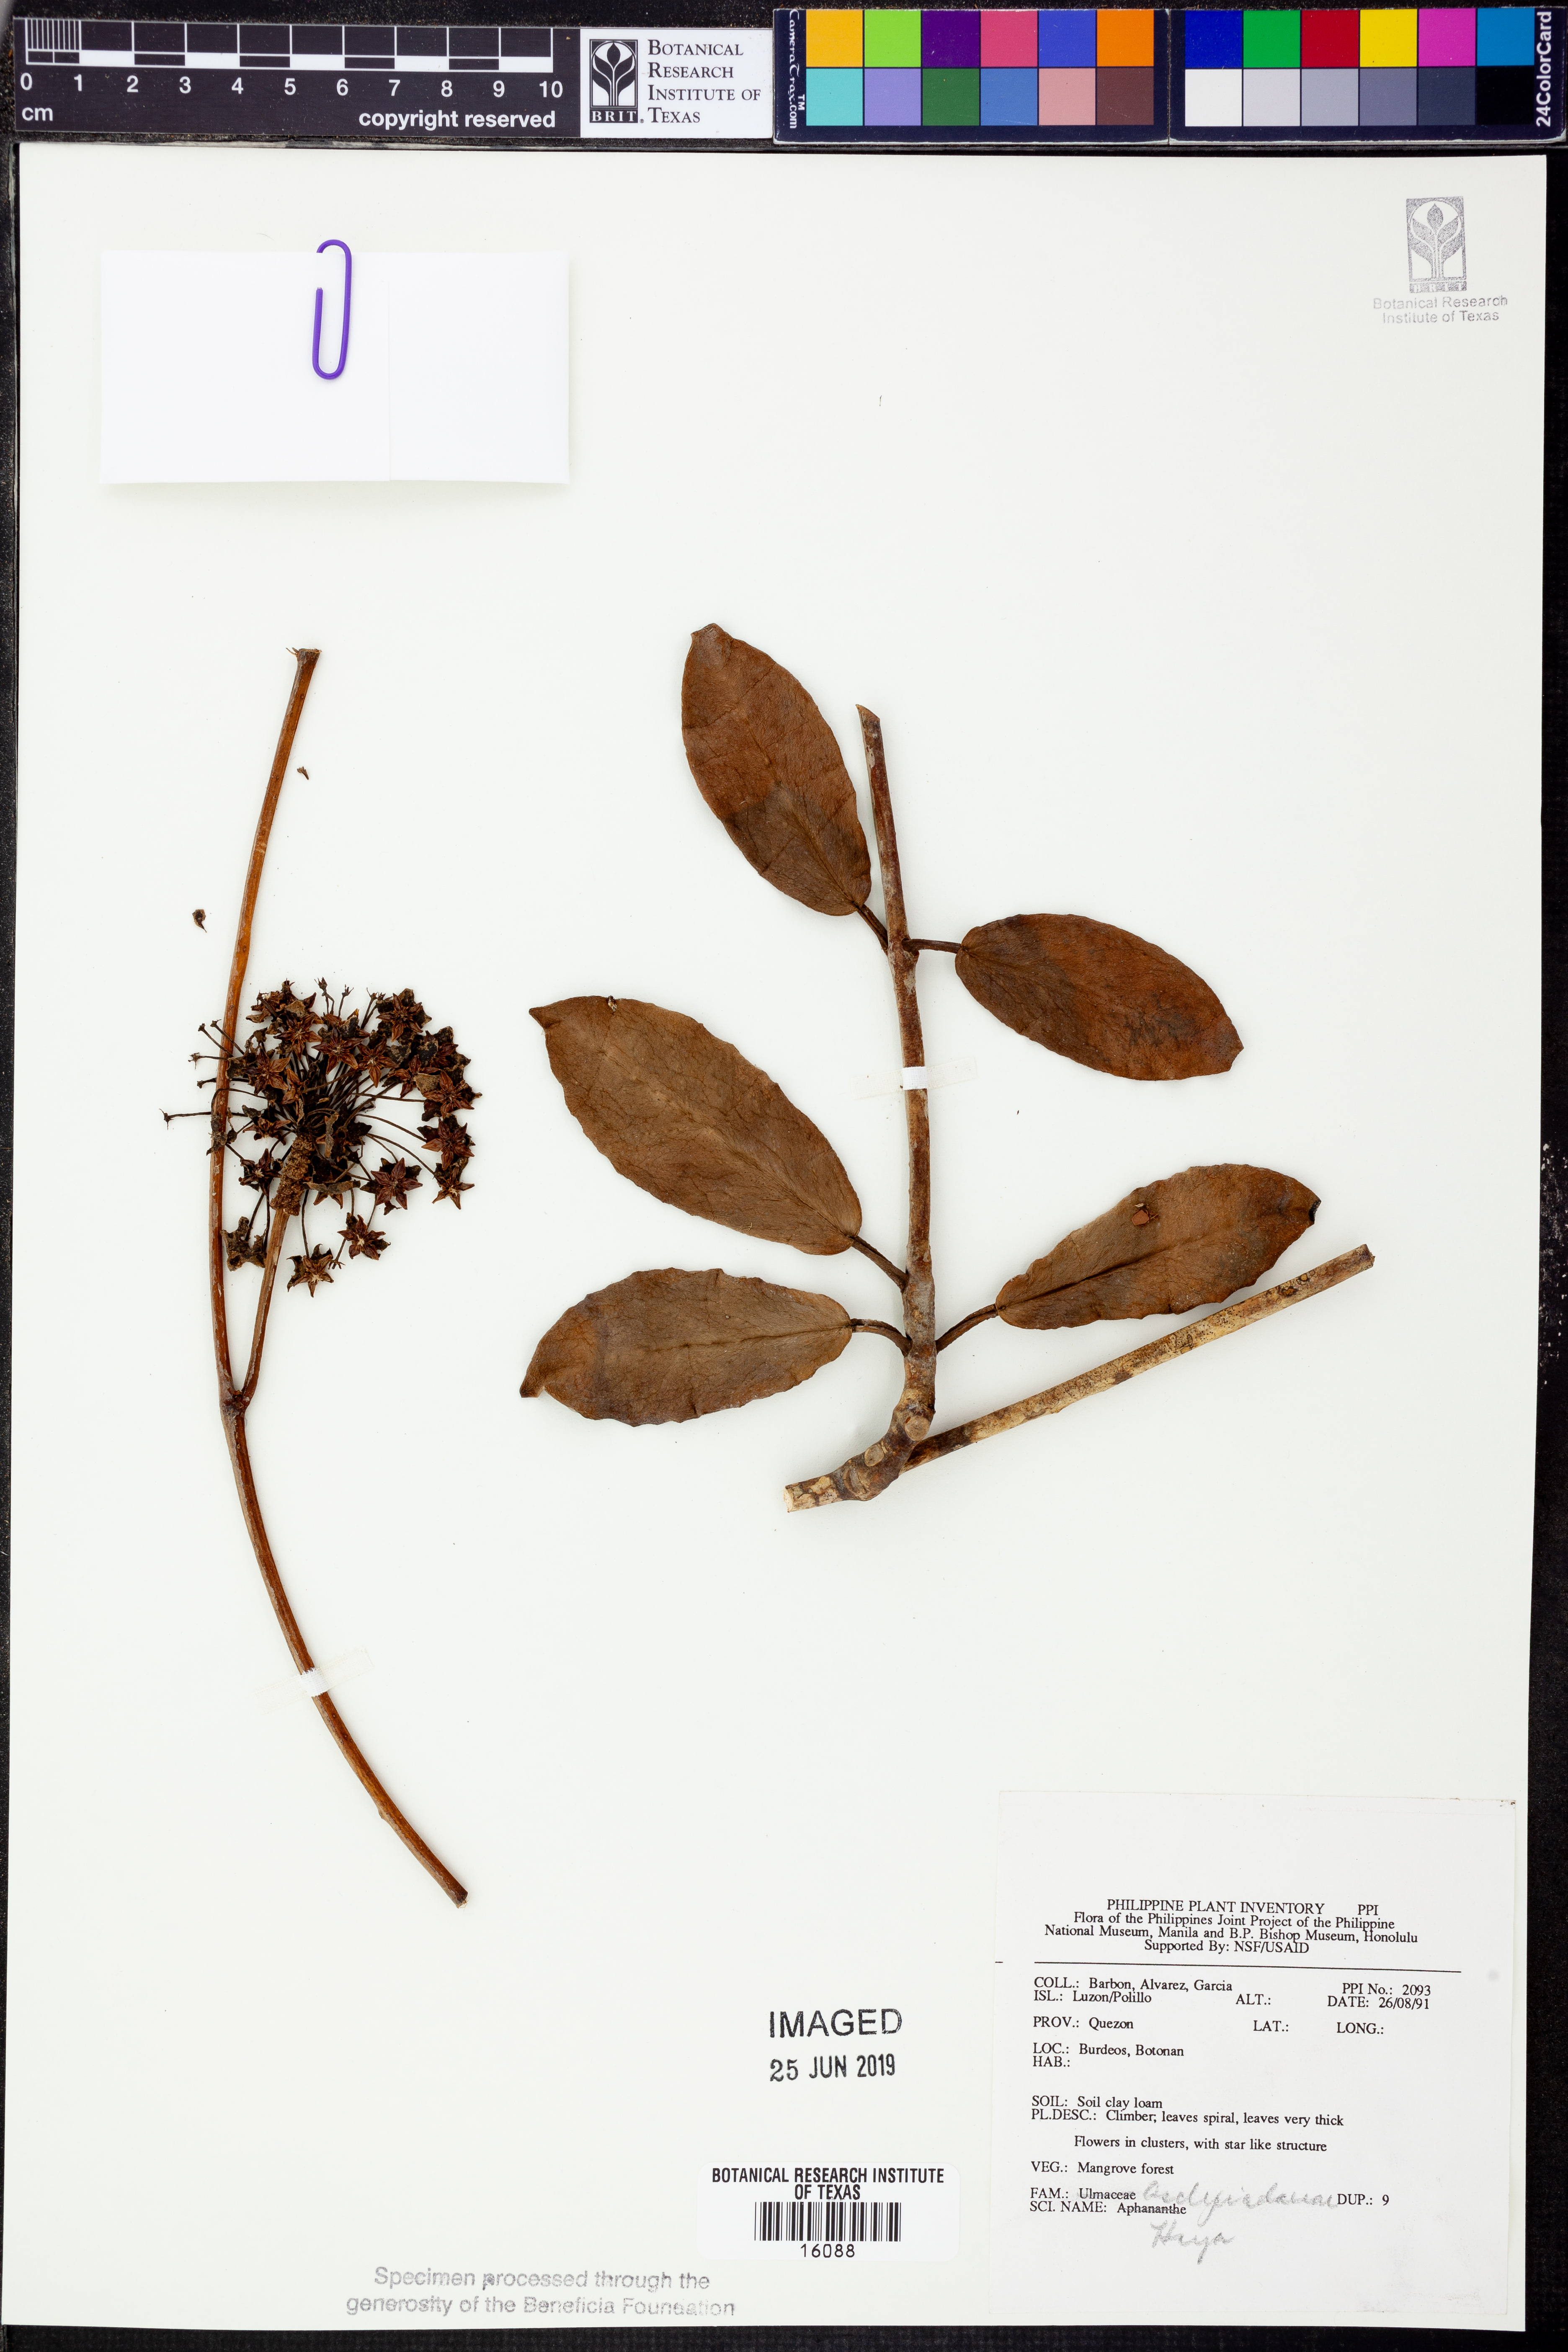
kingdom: Plantae
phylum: Tracheophyta
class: Magnoliopsida
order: Gentianales
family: Apocynaceae
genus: Hoya
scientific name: Hoya
